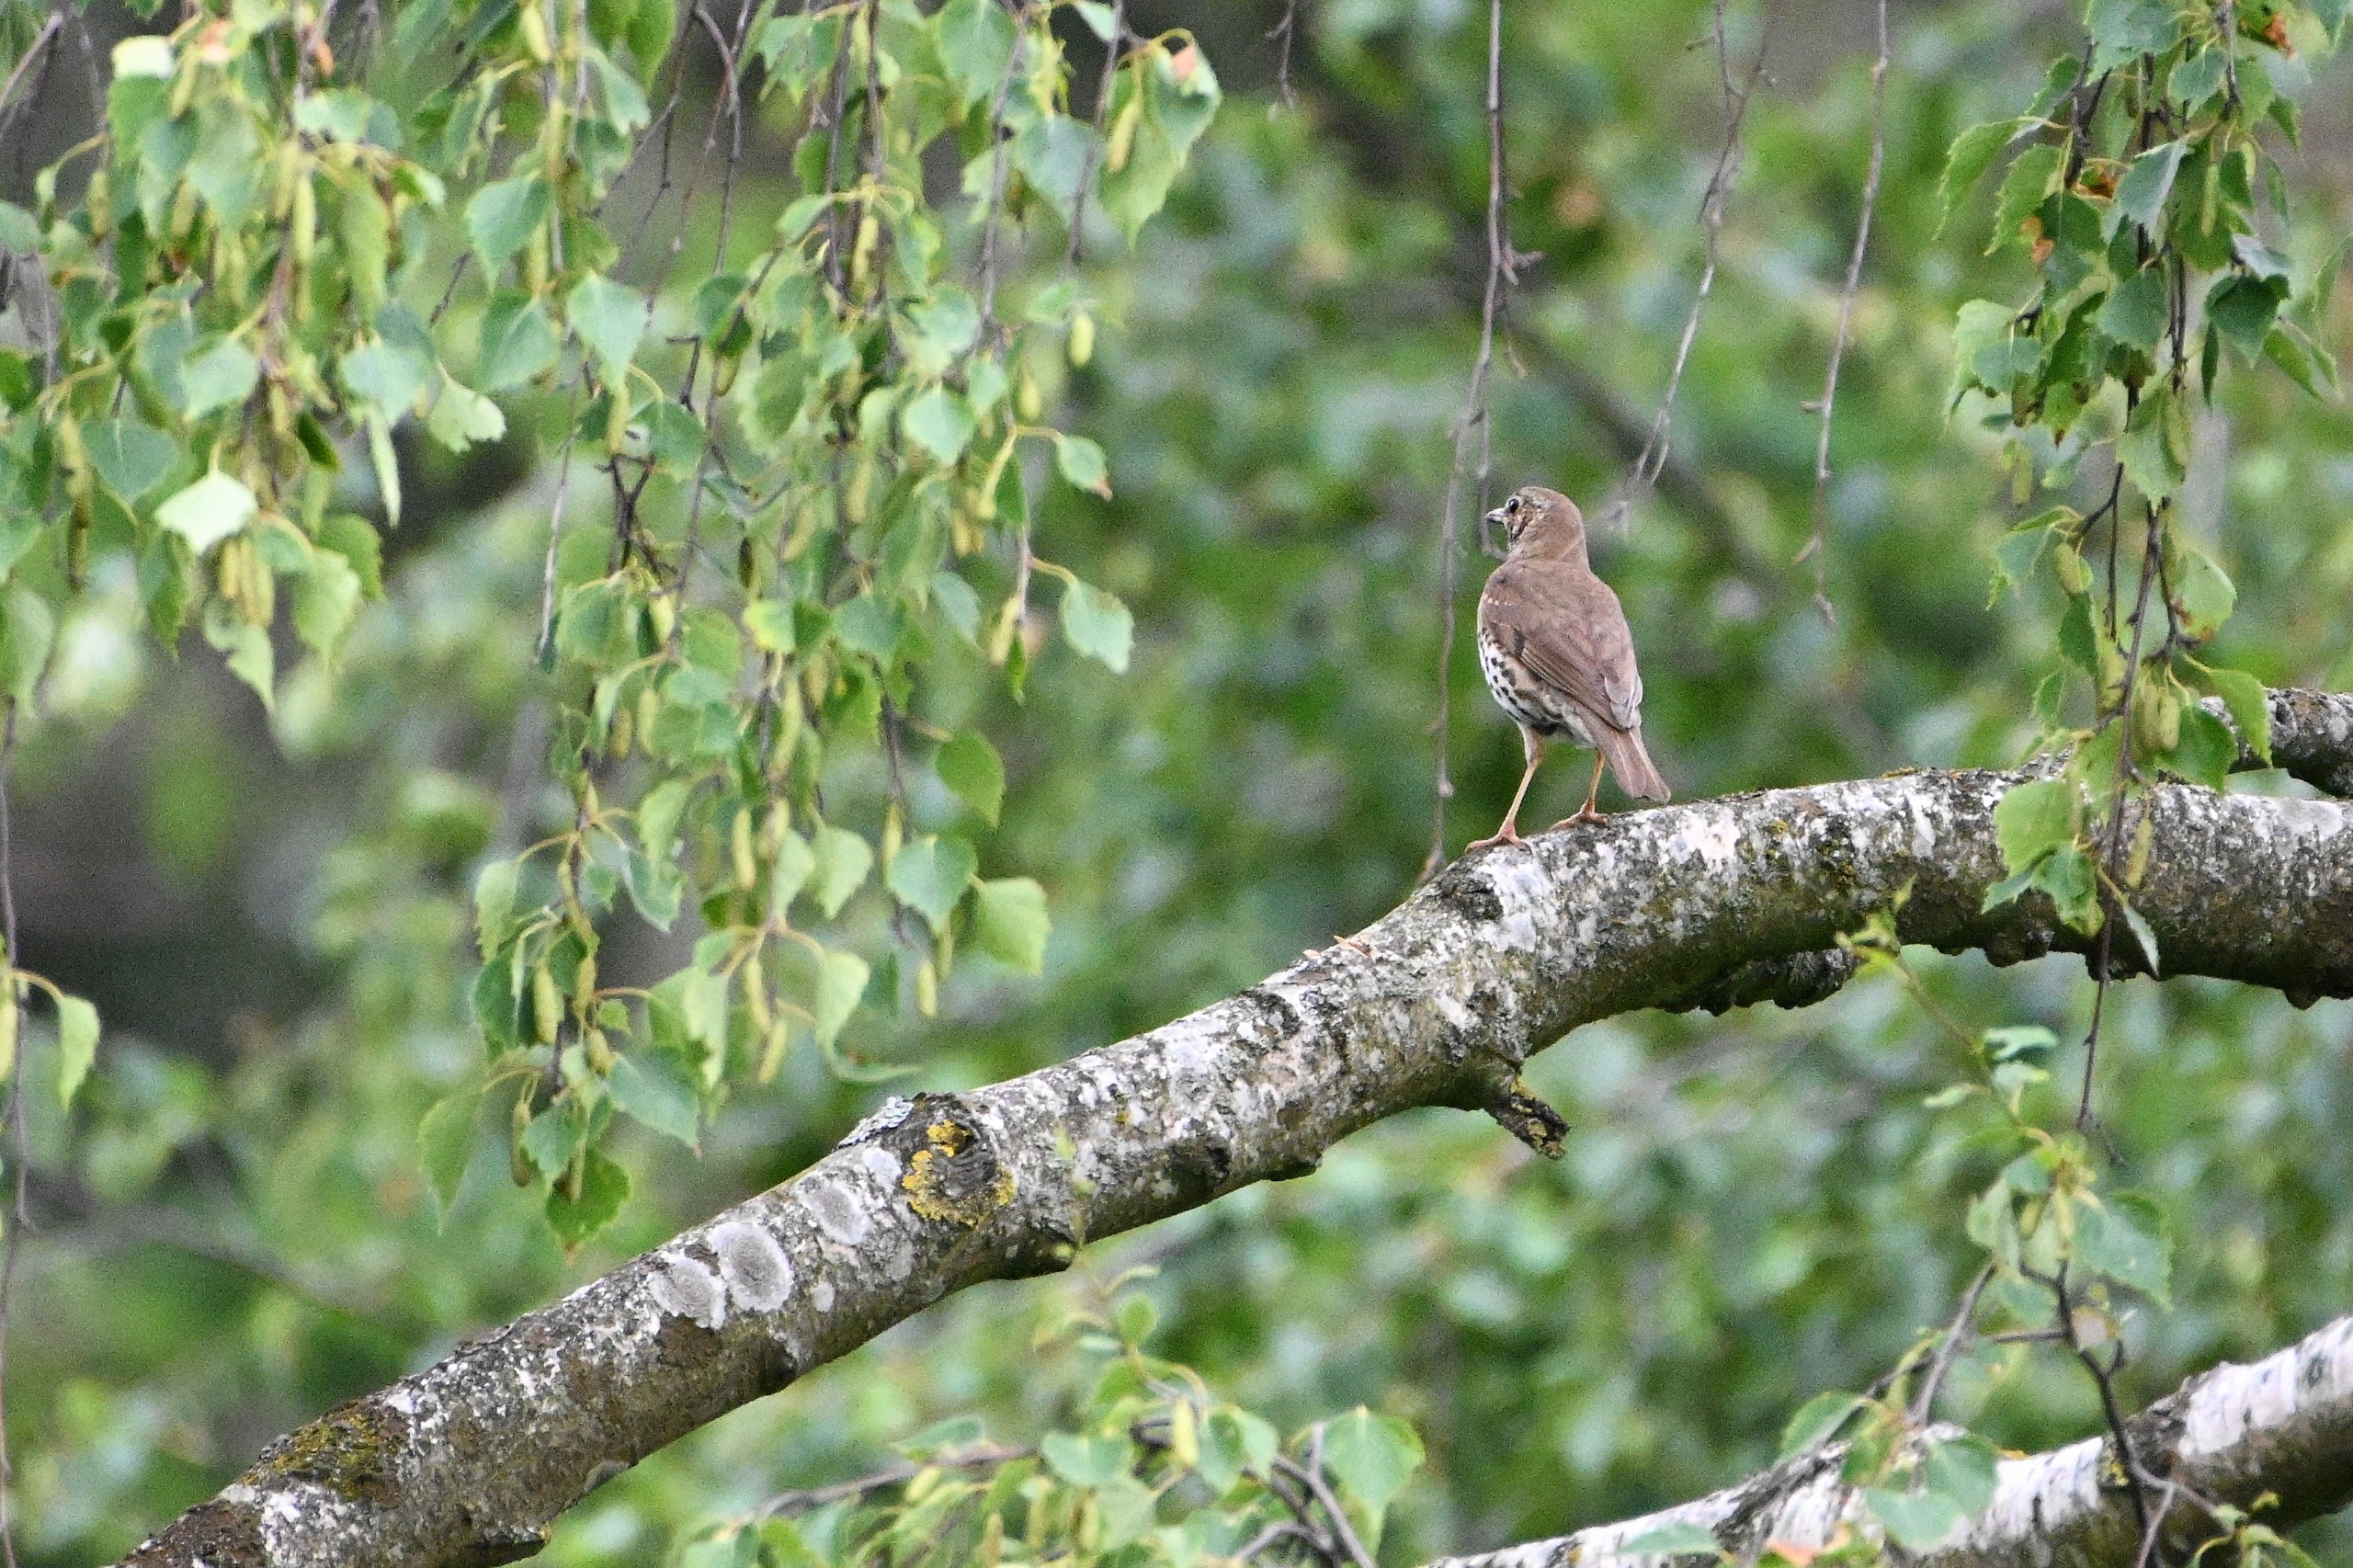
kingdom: Animalia
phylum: Chordata
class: Aves
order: Passeriformes
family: Turdidae
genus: Turdus
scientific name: Turdus philomelos
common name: Sangdrossel
